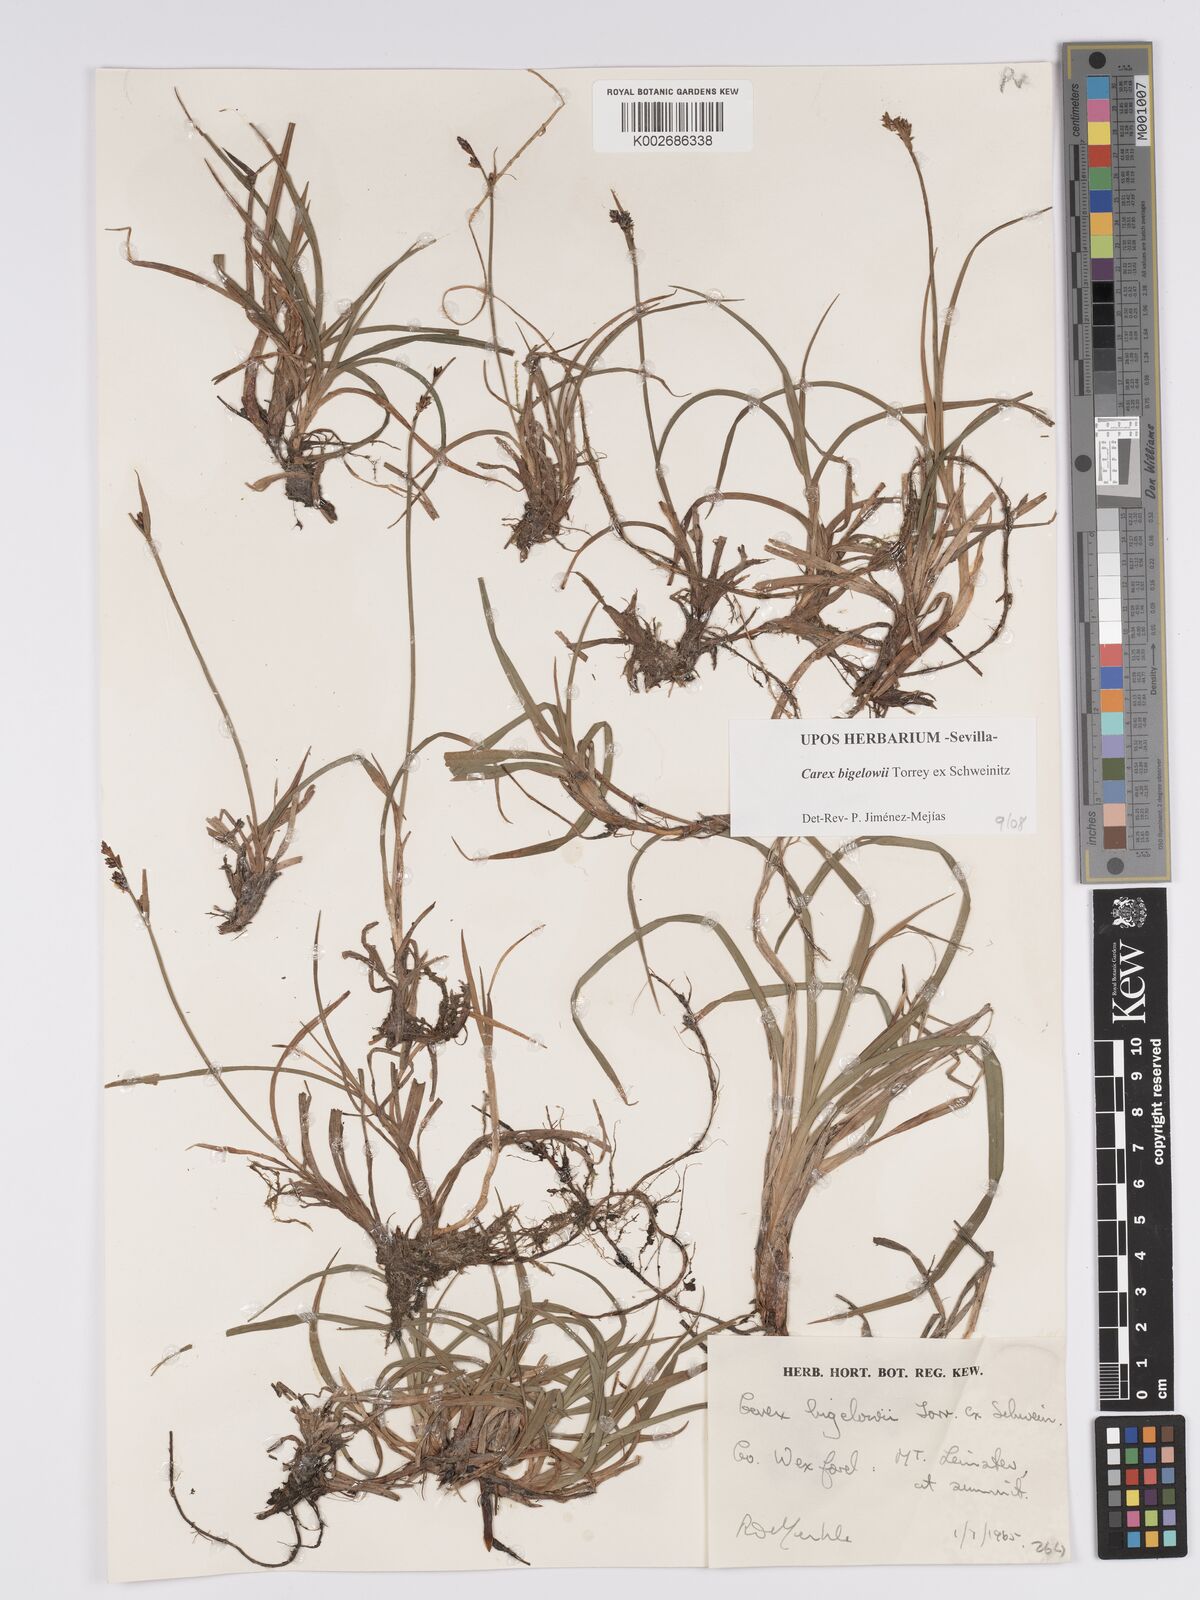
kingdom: Plantae
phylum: Tracheophyta
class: Liliopsida
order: Poales
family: Cyperaceae
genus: Carex
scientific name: Carex bigelowii
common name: Stiff sedge
